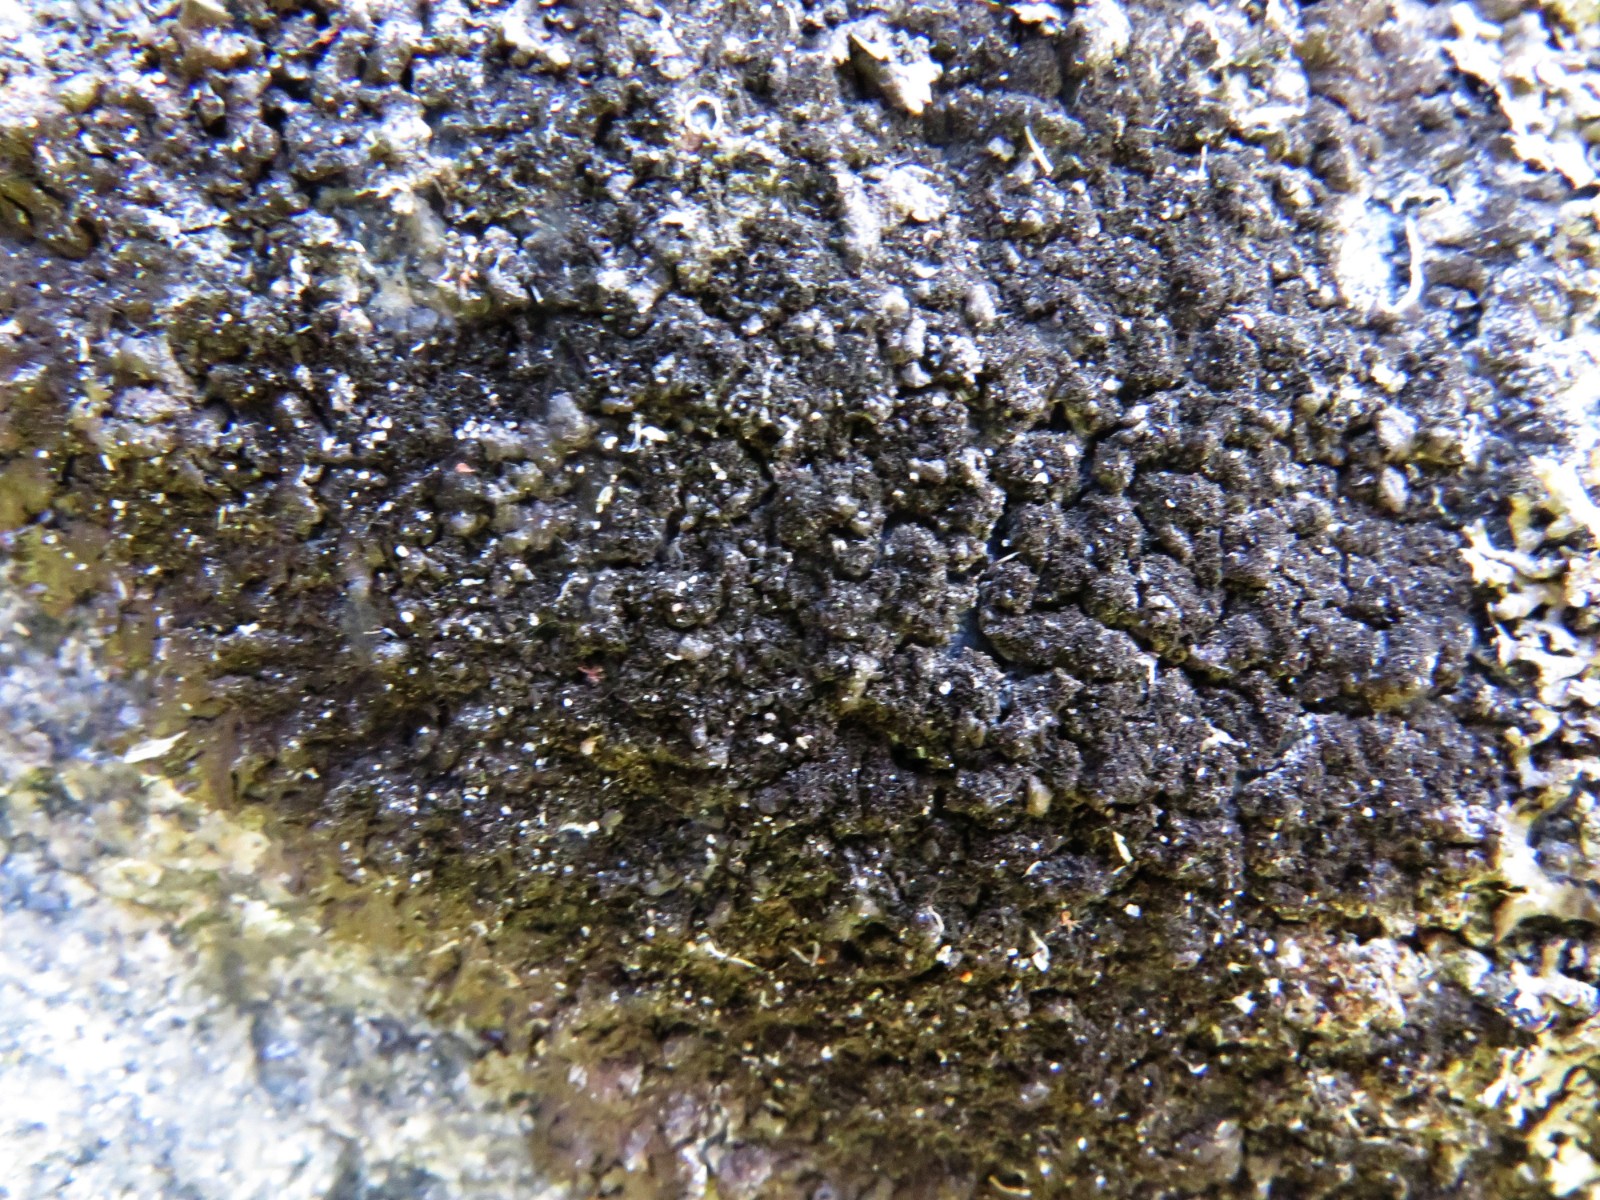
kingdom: Fungi
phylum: Ascomycota
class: Lecanoromycetes
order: Lecanorales
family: Parmeliaceae
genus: Melanelixia
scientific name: Melanelixia fuliginosa
